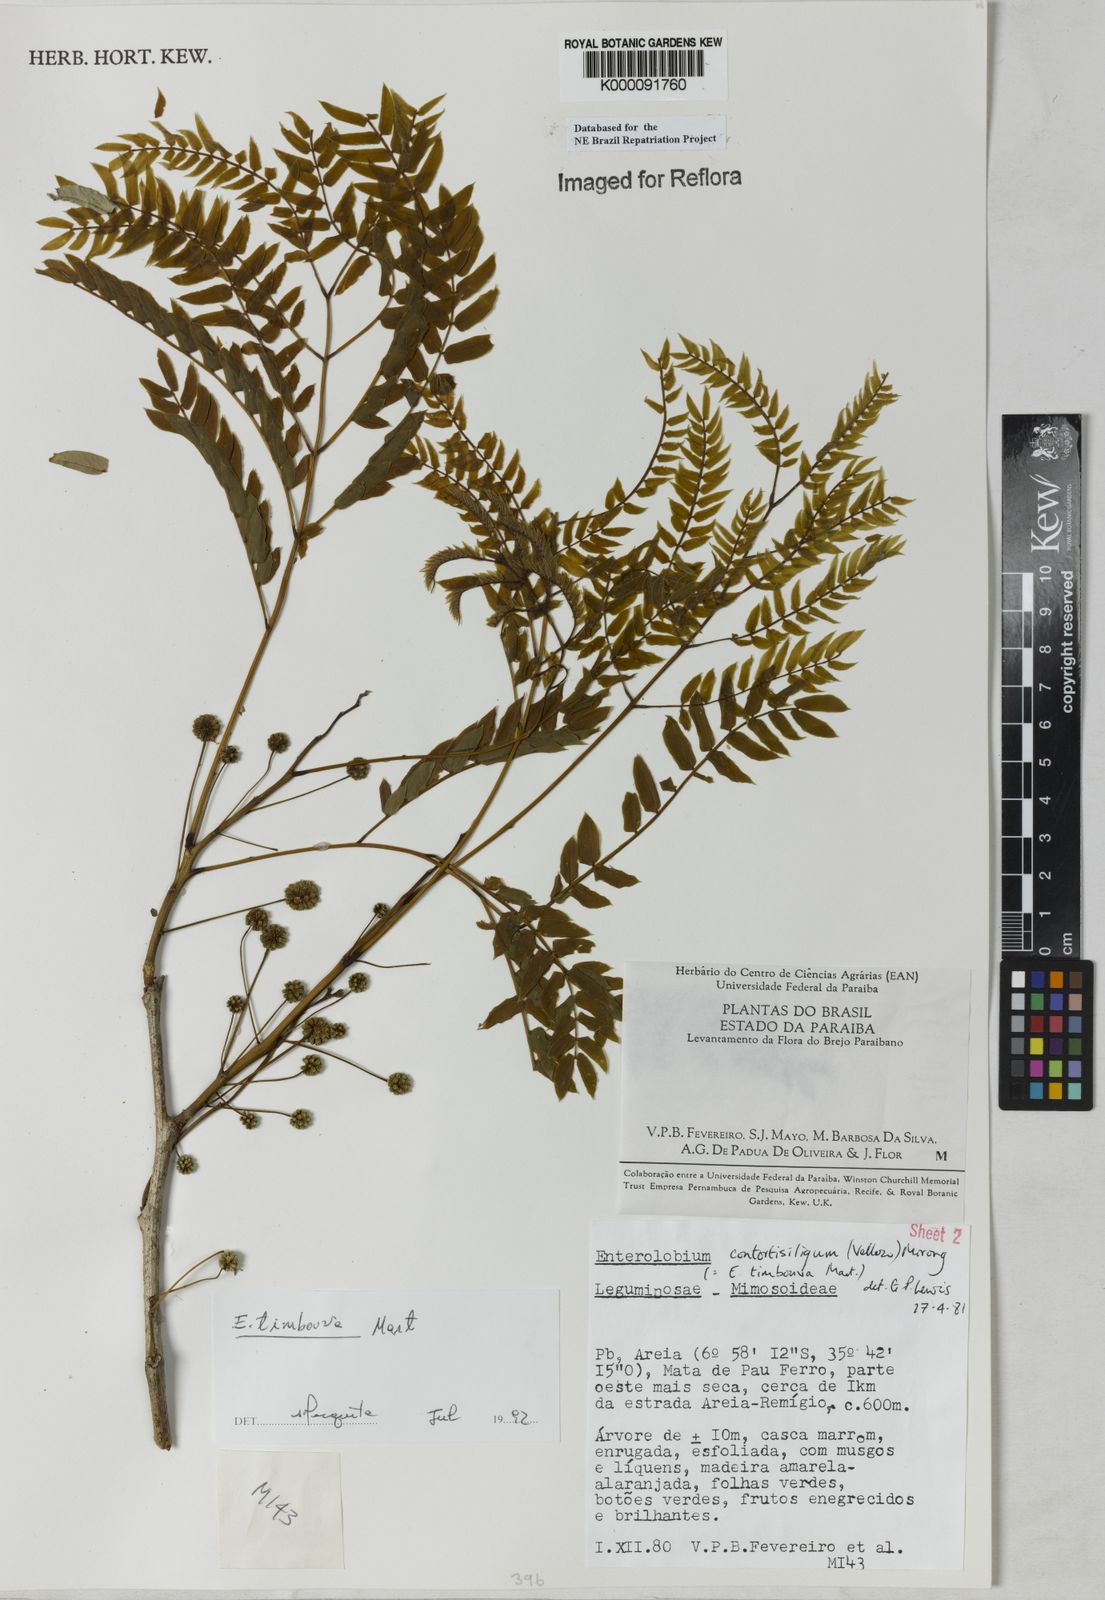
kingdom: Plantae
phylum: Tracheophyta
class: Magnoliopsida
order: Fabales
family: Fabaceae
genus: Enterolobium
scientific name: Enterolobium timbouva
